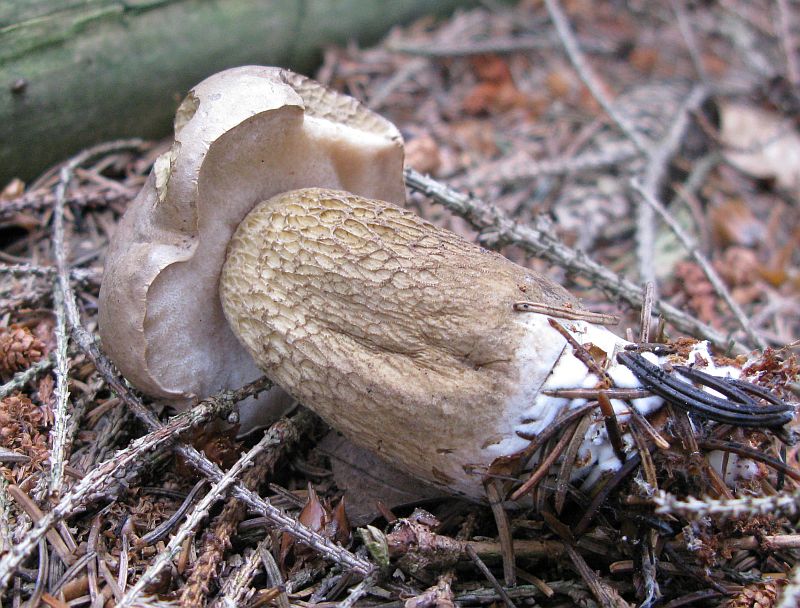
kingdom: Fungi
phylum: Basidiomycota
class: Agaricomycetes
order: Boletales
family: Boletaceae
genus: Tylopilus
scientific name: Tylopilus felleus
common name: galderørhat
